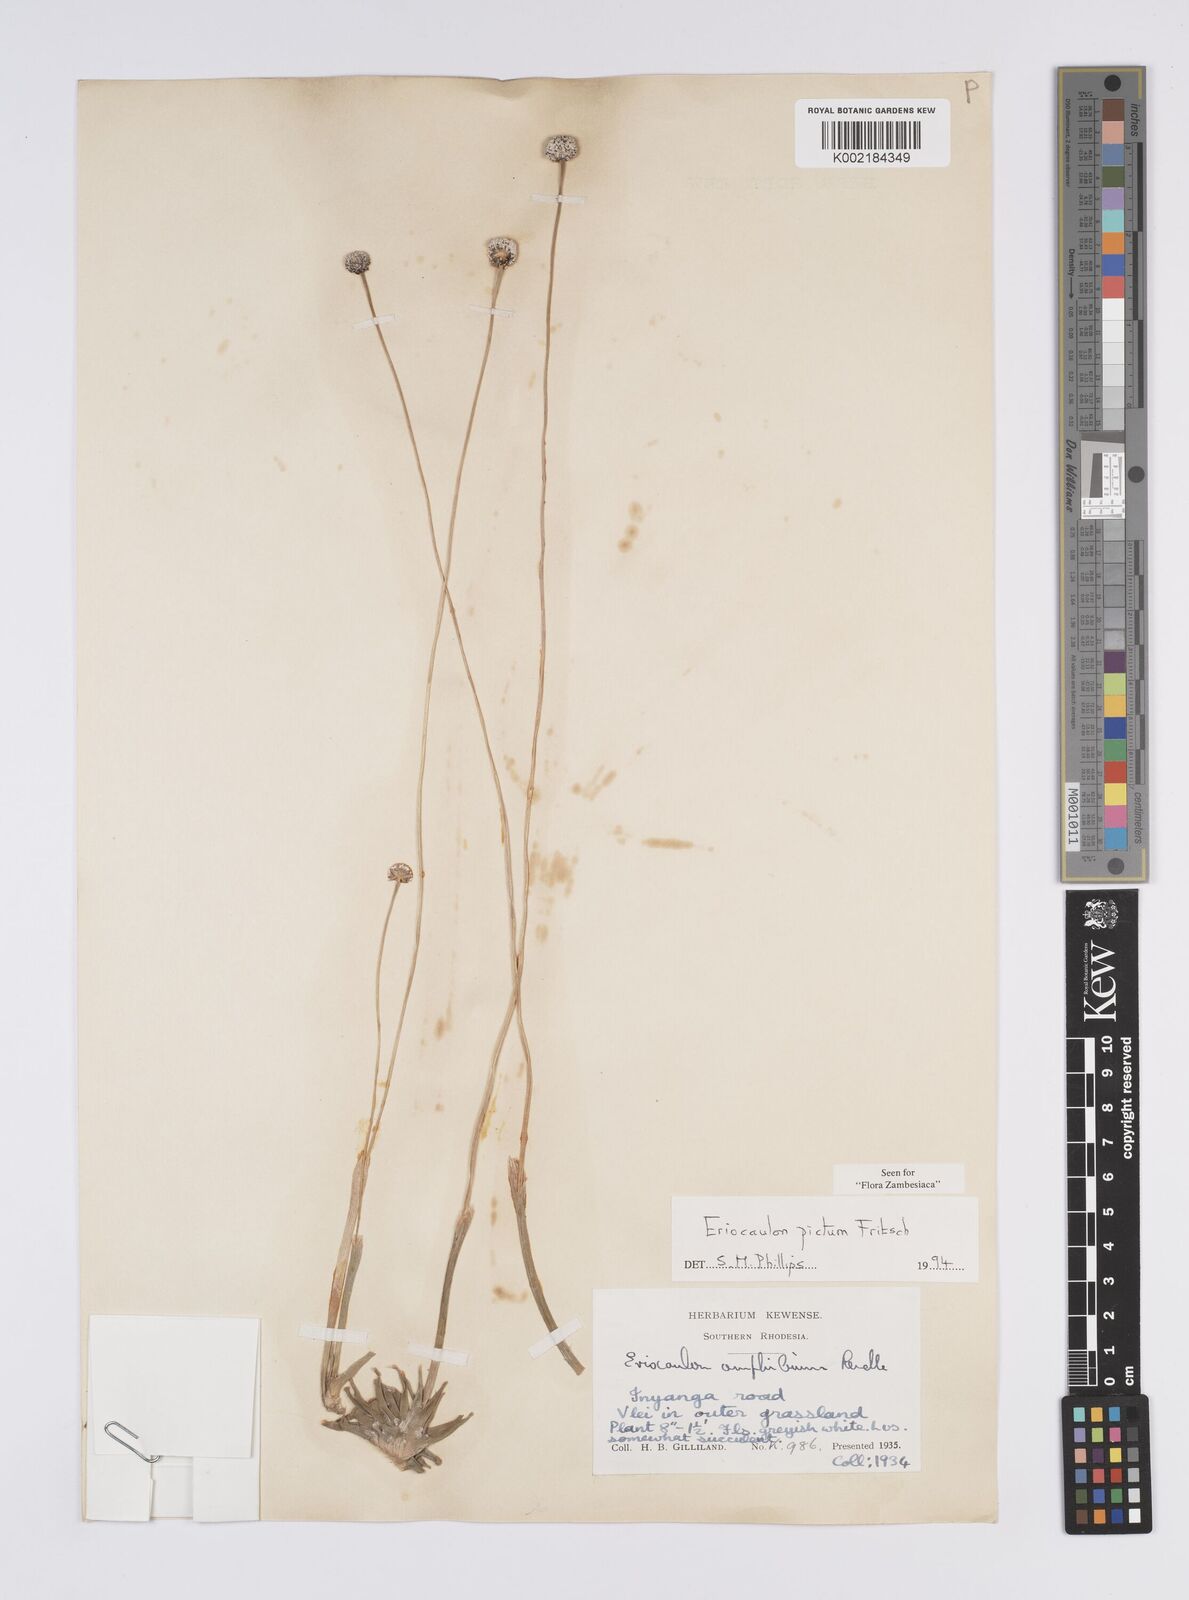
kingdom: Plantae
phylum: Tracheophyta
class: Liliopsida
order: Poales
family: Eriocaulaceae
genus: Eriocaulon
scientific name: Eriocaulon pictum
